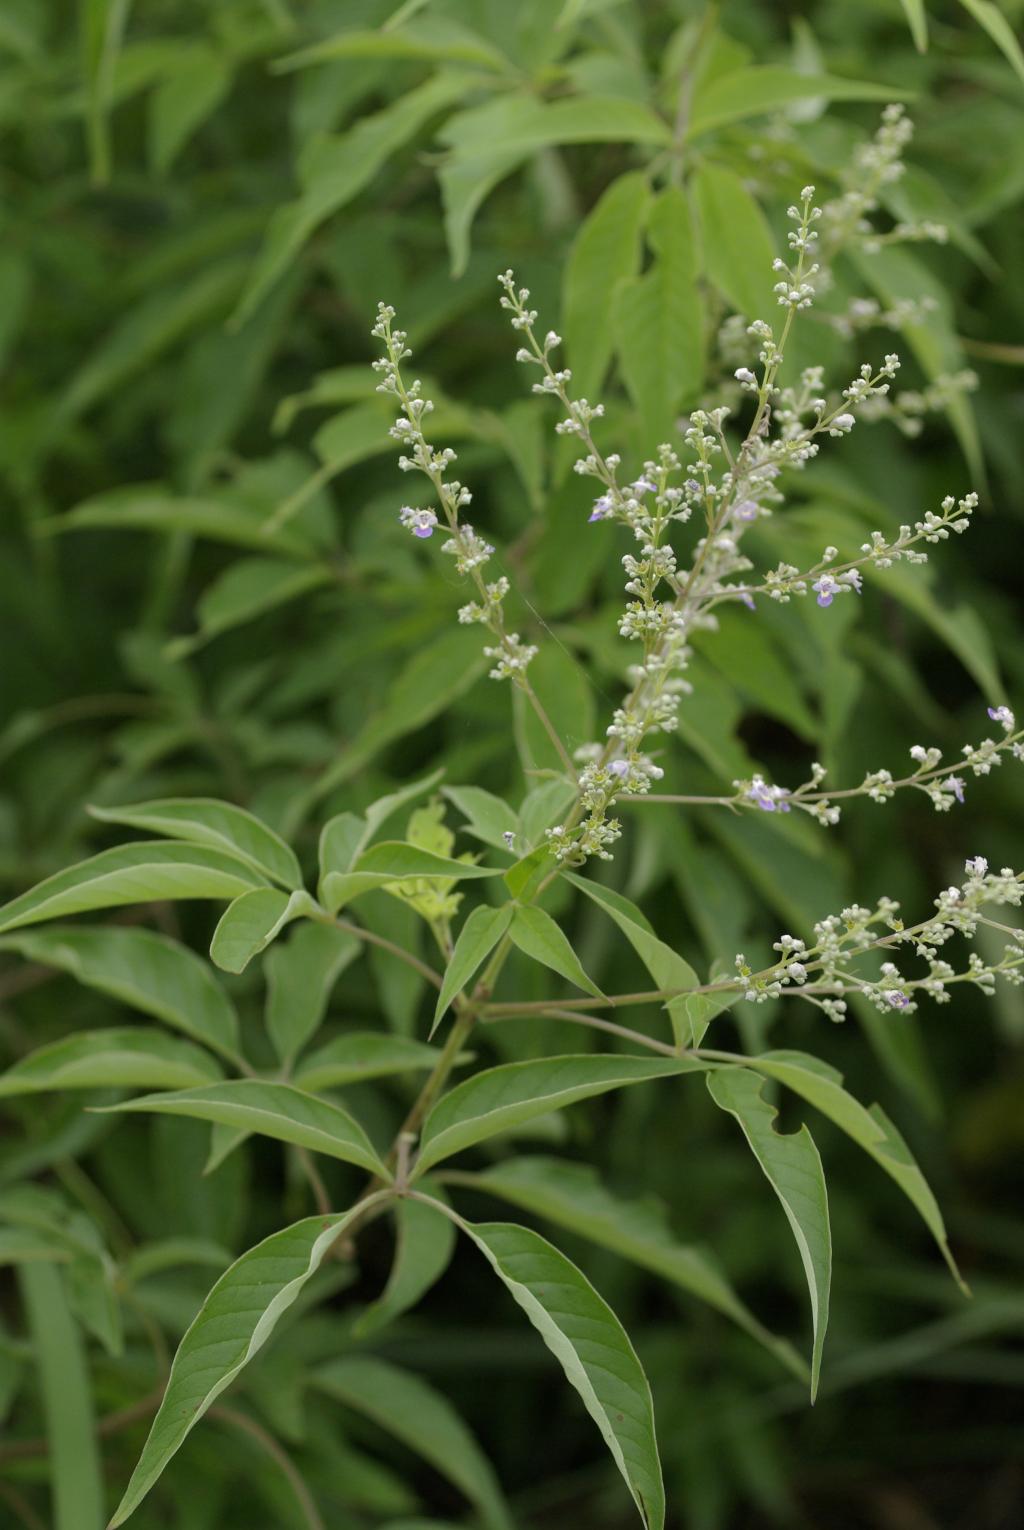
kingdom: Plantae
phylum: Tracheophyta
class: Magnoliopsida
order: Lamiales
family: Lamiaceae
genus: Vitex
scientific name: Vitex negundo
